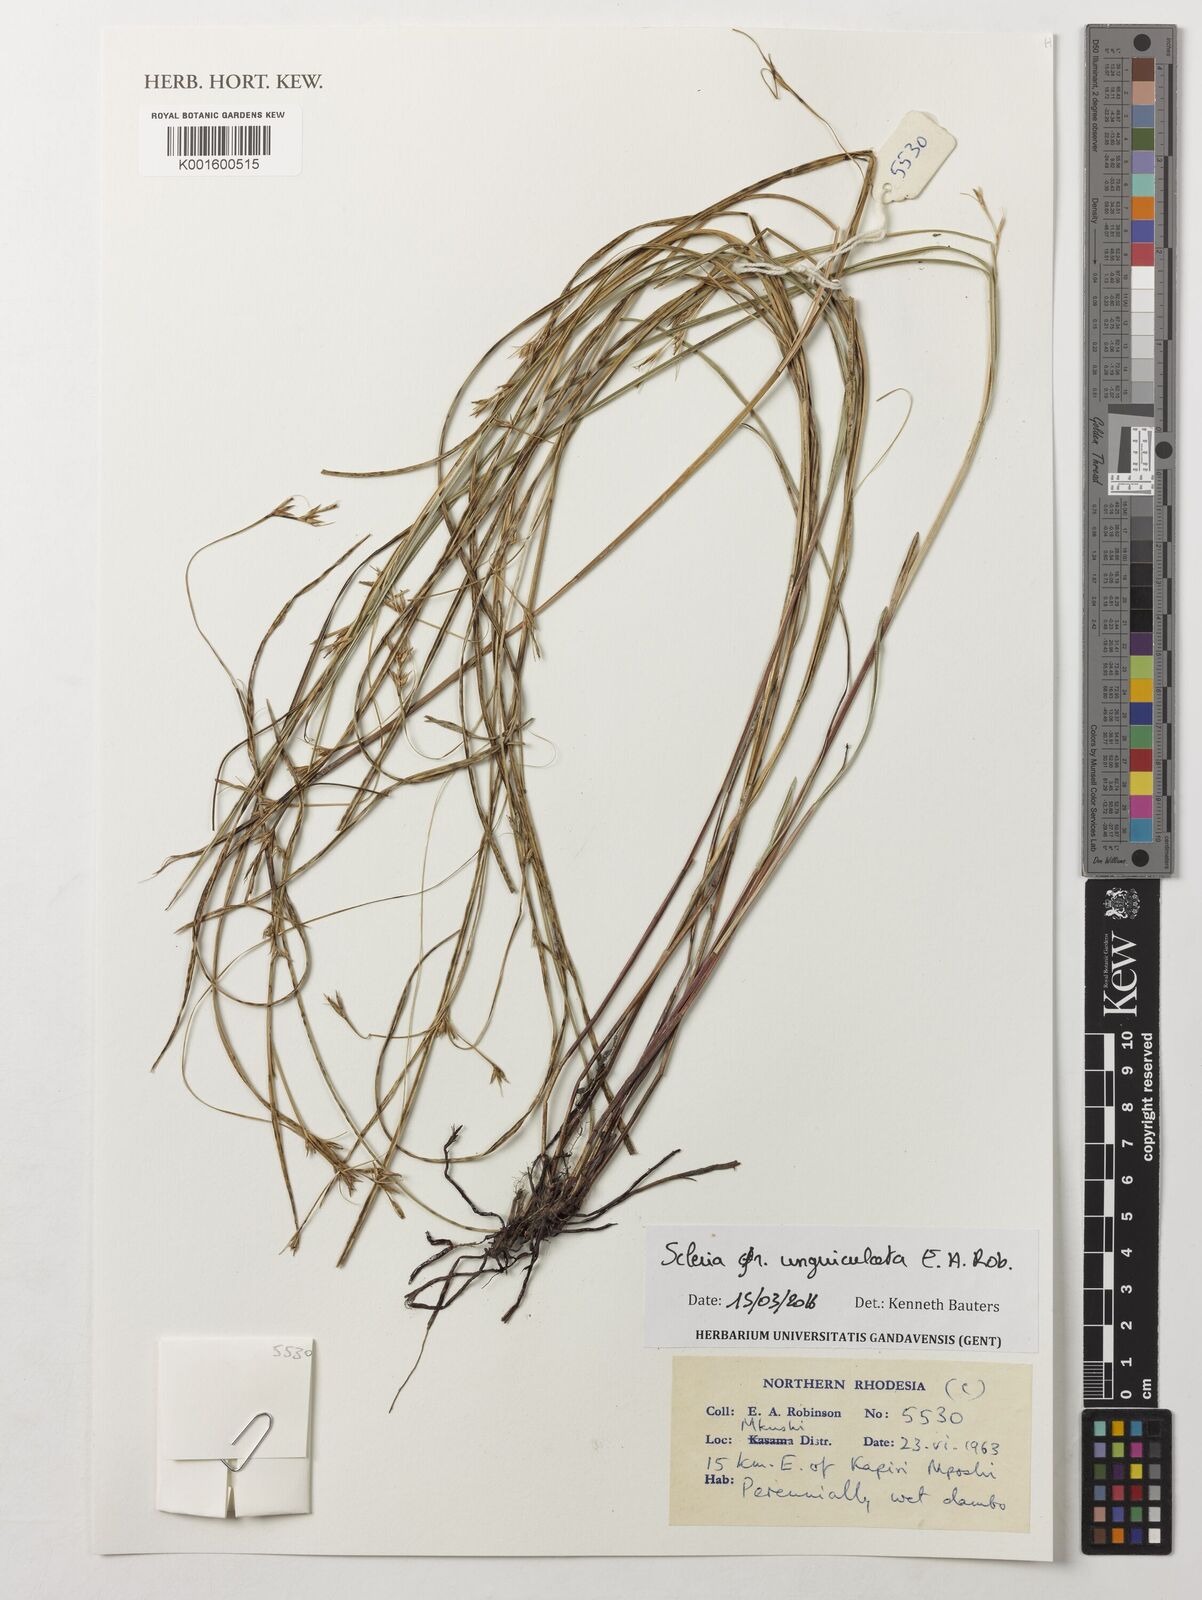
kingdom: Plantae
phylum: Tracheophyta
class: Liliopsida
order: Poales
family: Cyperaceae
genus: Scleria
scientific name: Scleria unguiculata
